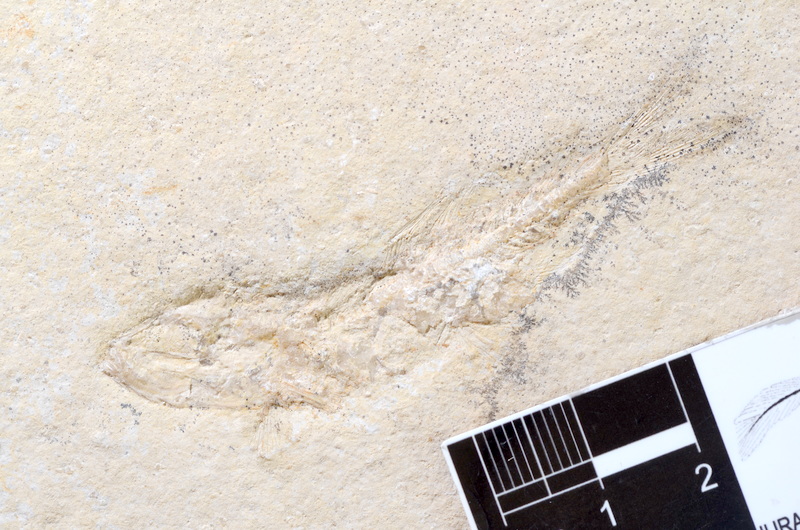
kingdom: Animalia
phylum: Chordata
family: Ascalaboidae
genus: Tharsis
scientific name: Tharsis dubius
